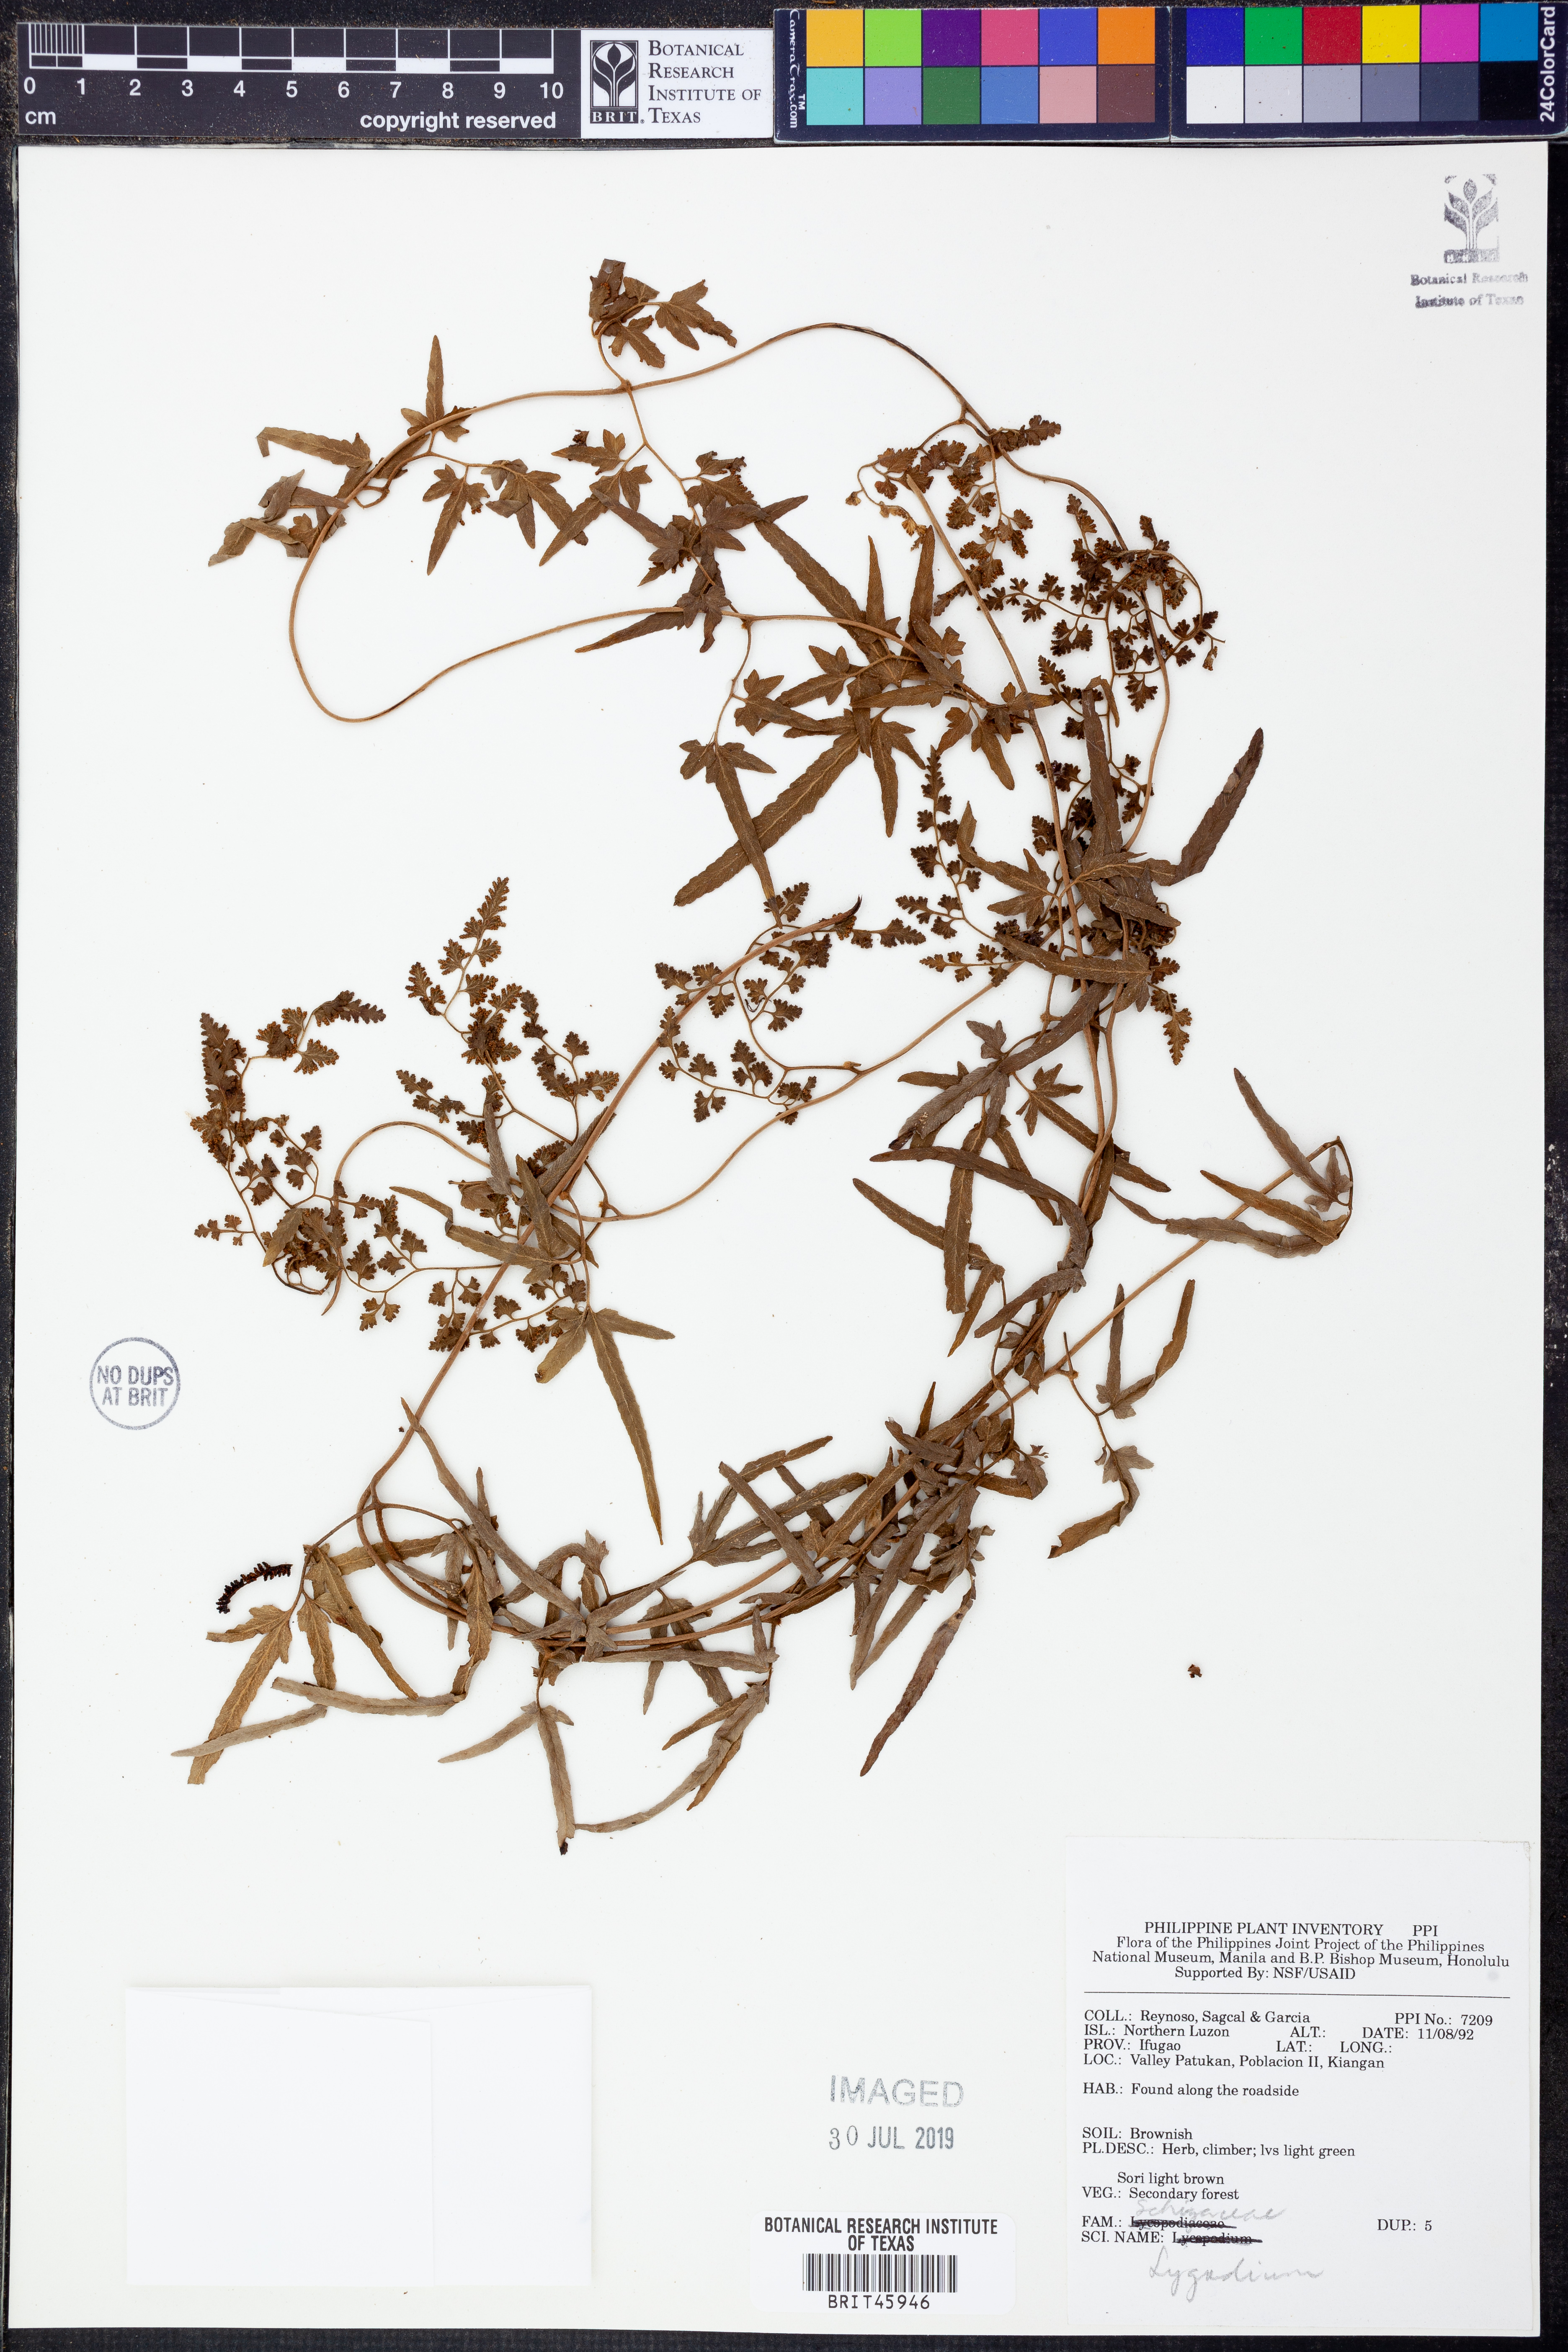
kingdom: Plantae
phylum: Tracheophyta
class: Polypodiopsida
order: Schizaeales
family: Lygodiaceae
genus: Lygodium
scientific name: Lygodium
